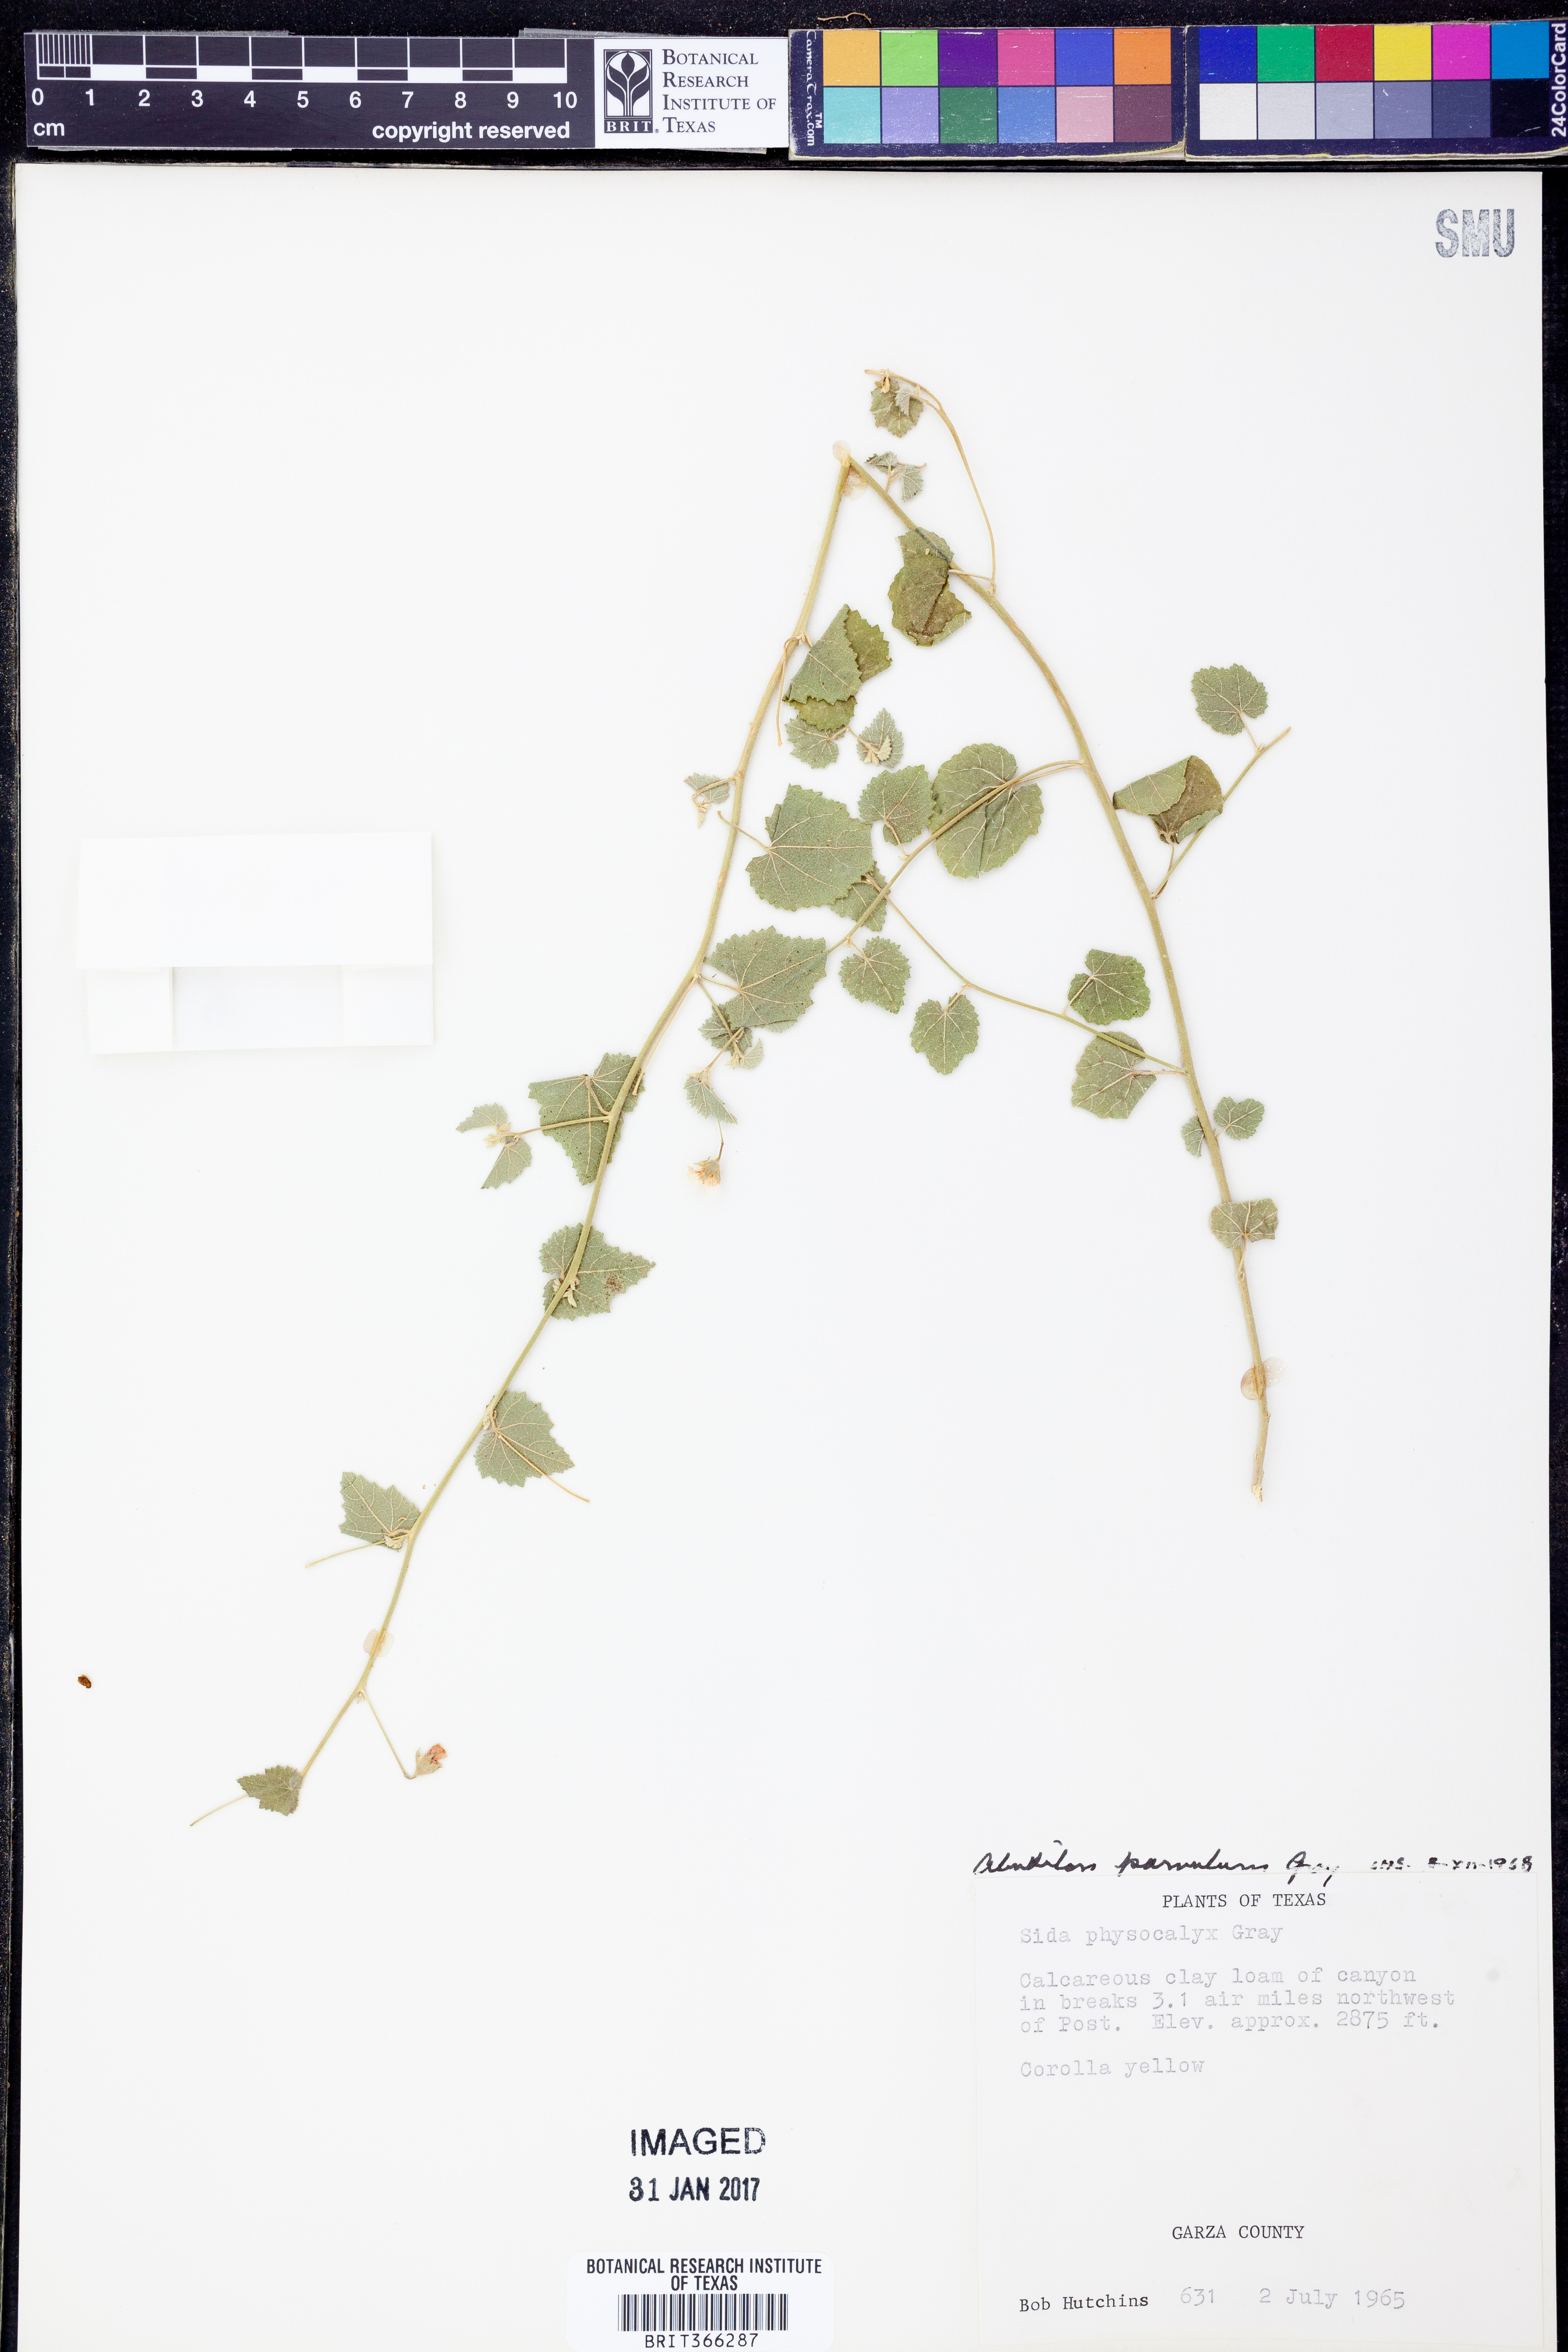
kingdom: Plantae
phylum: Tracheophyta
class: Magnoliopsida
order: Malvales
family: Malvaceae
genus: Abutilon
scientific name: Abutilon parvulum
